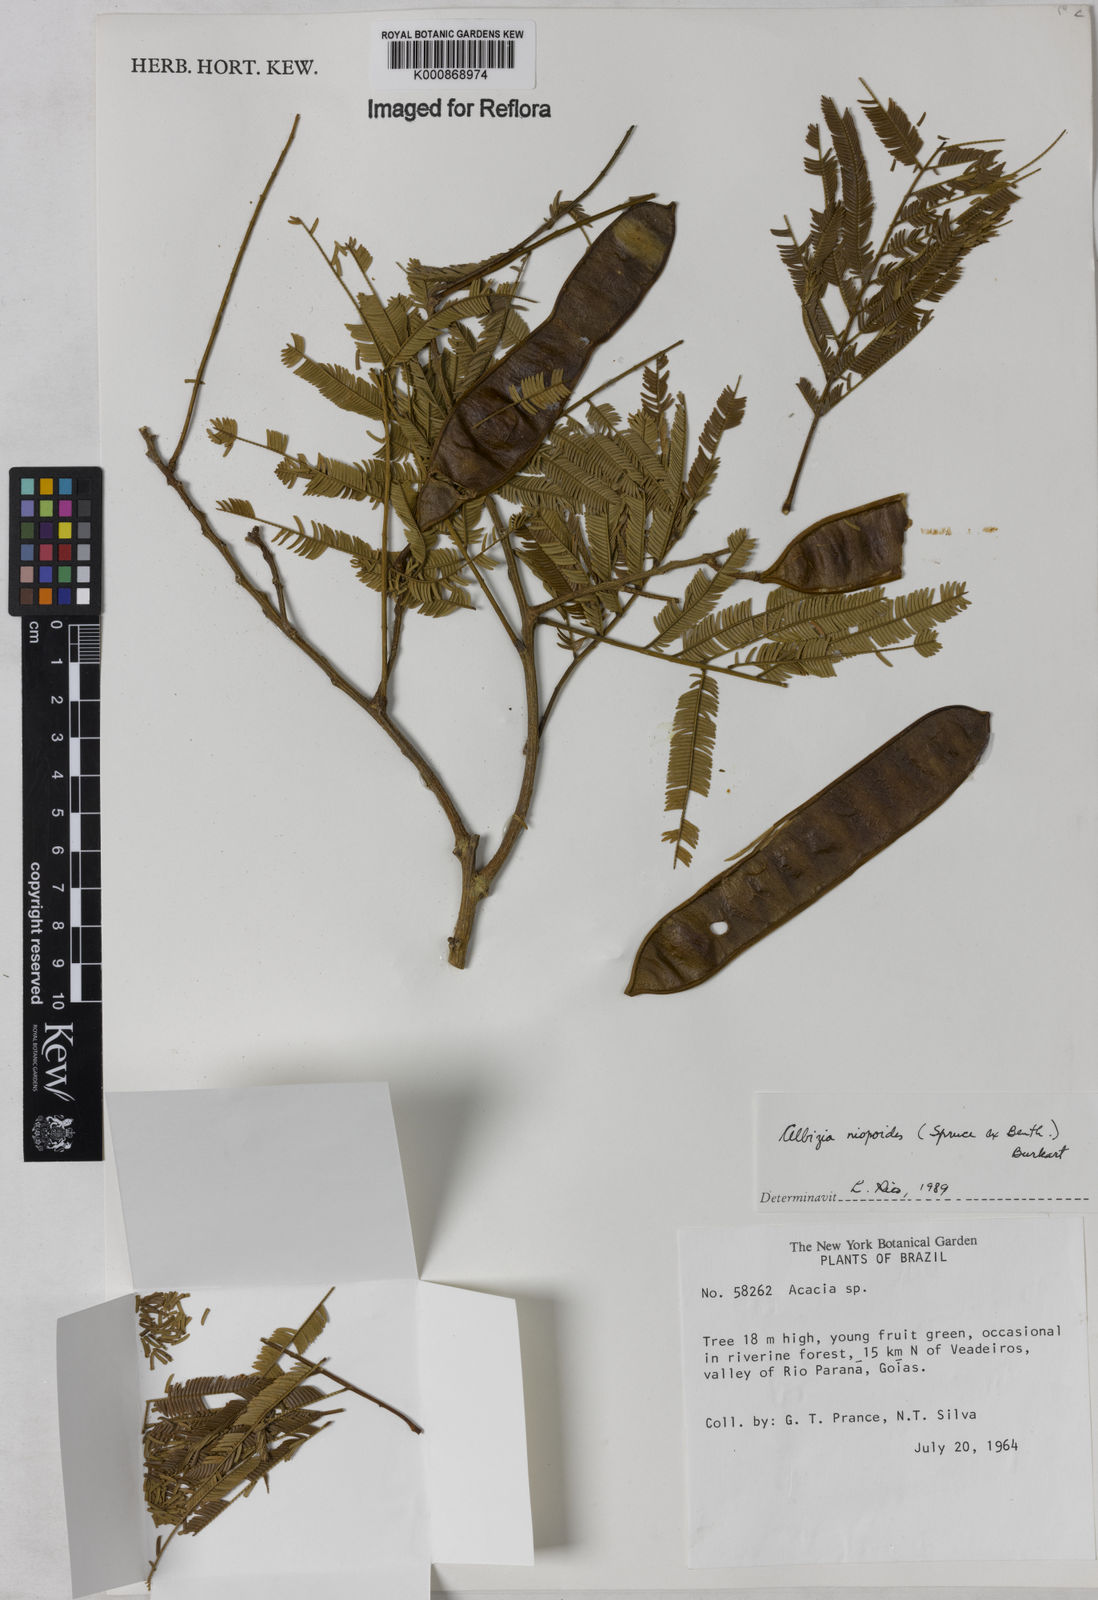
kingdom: Plantae
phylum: Tracheophyta
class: Magnoliopsida
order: Fabales
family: Fabaceae
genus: Albizia
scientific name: Albizia niopoides
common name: Silk tree
